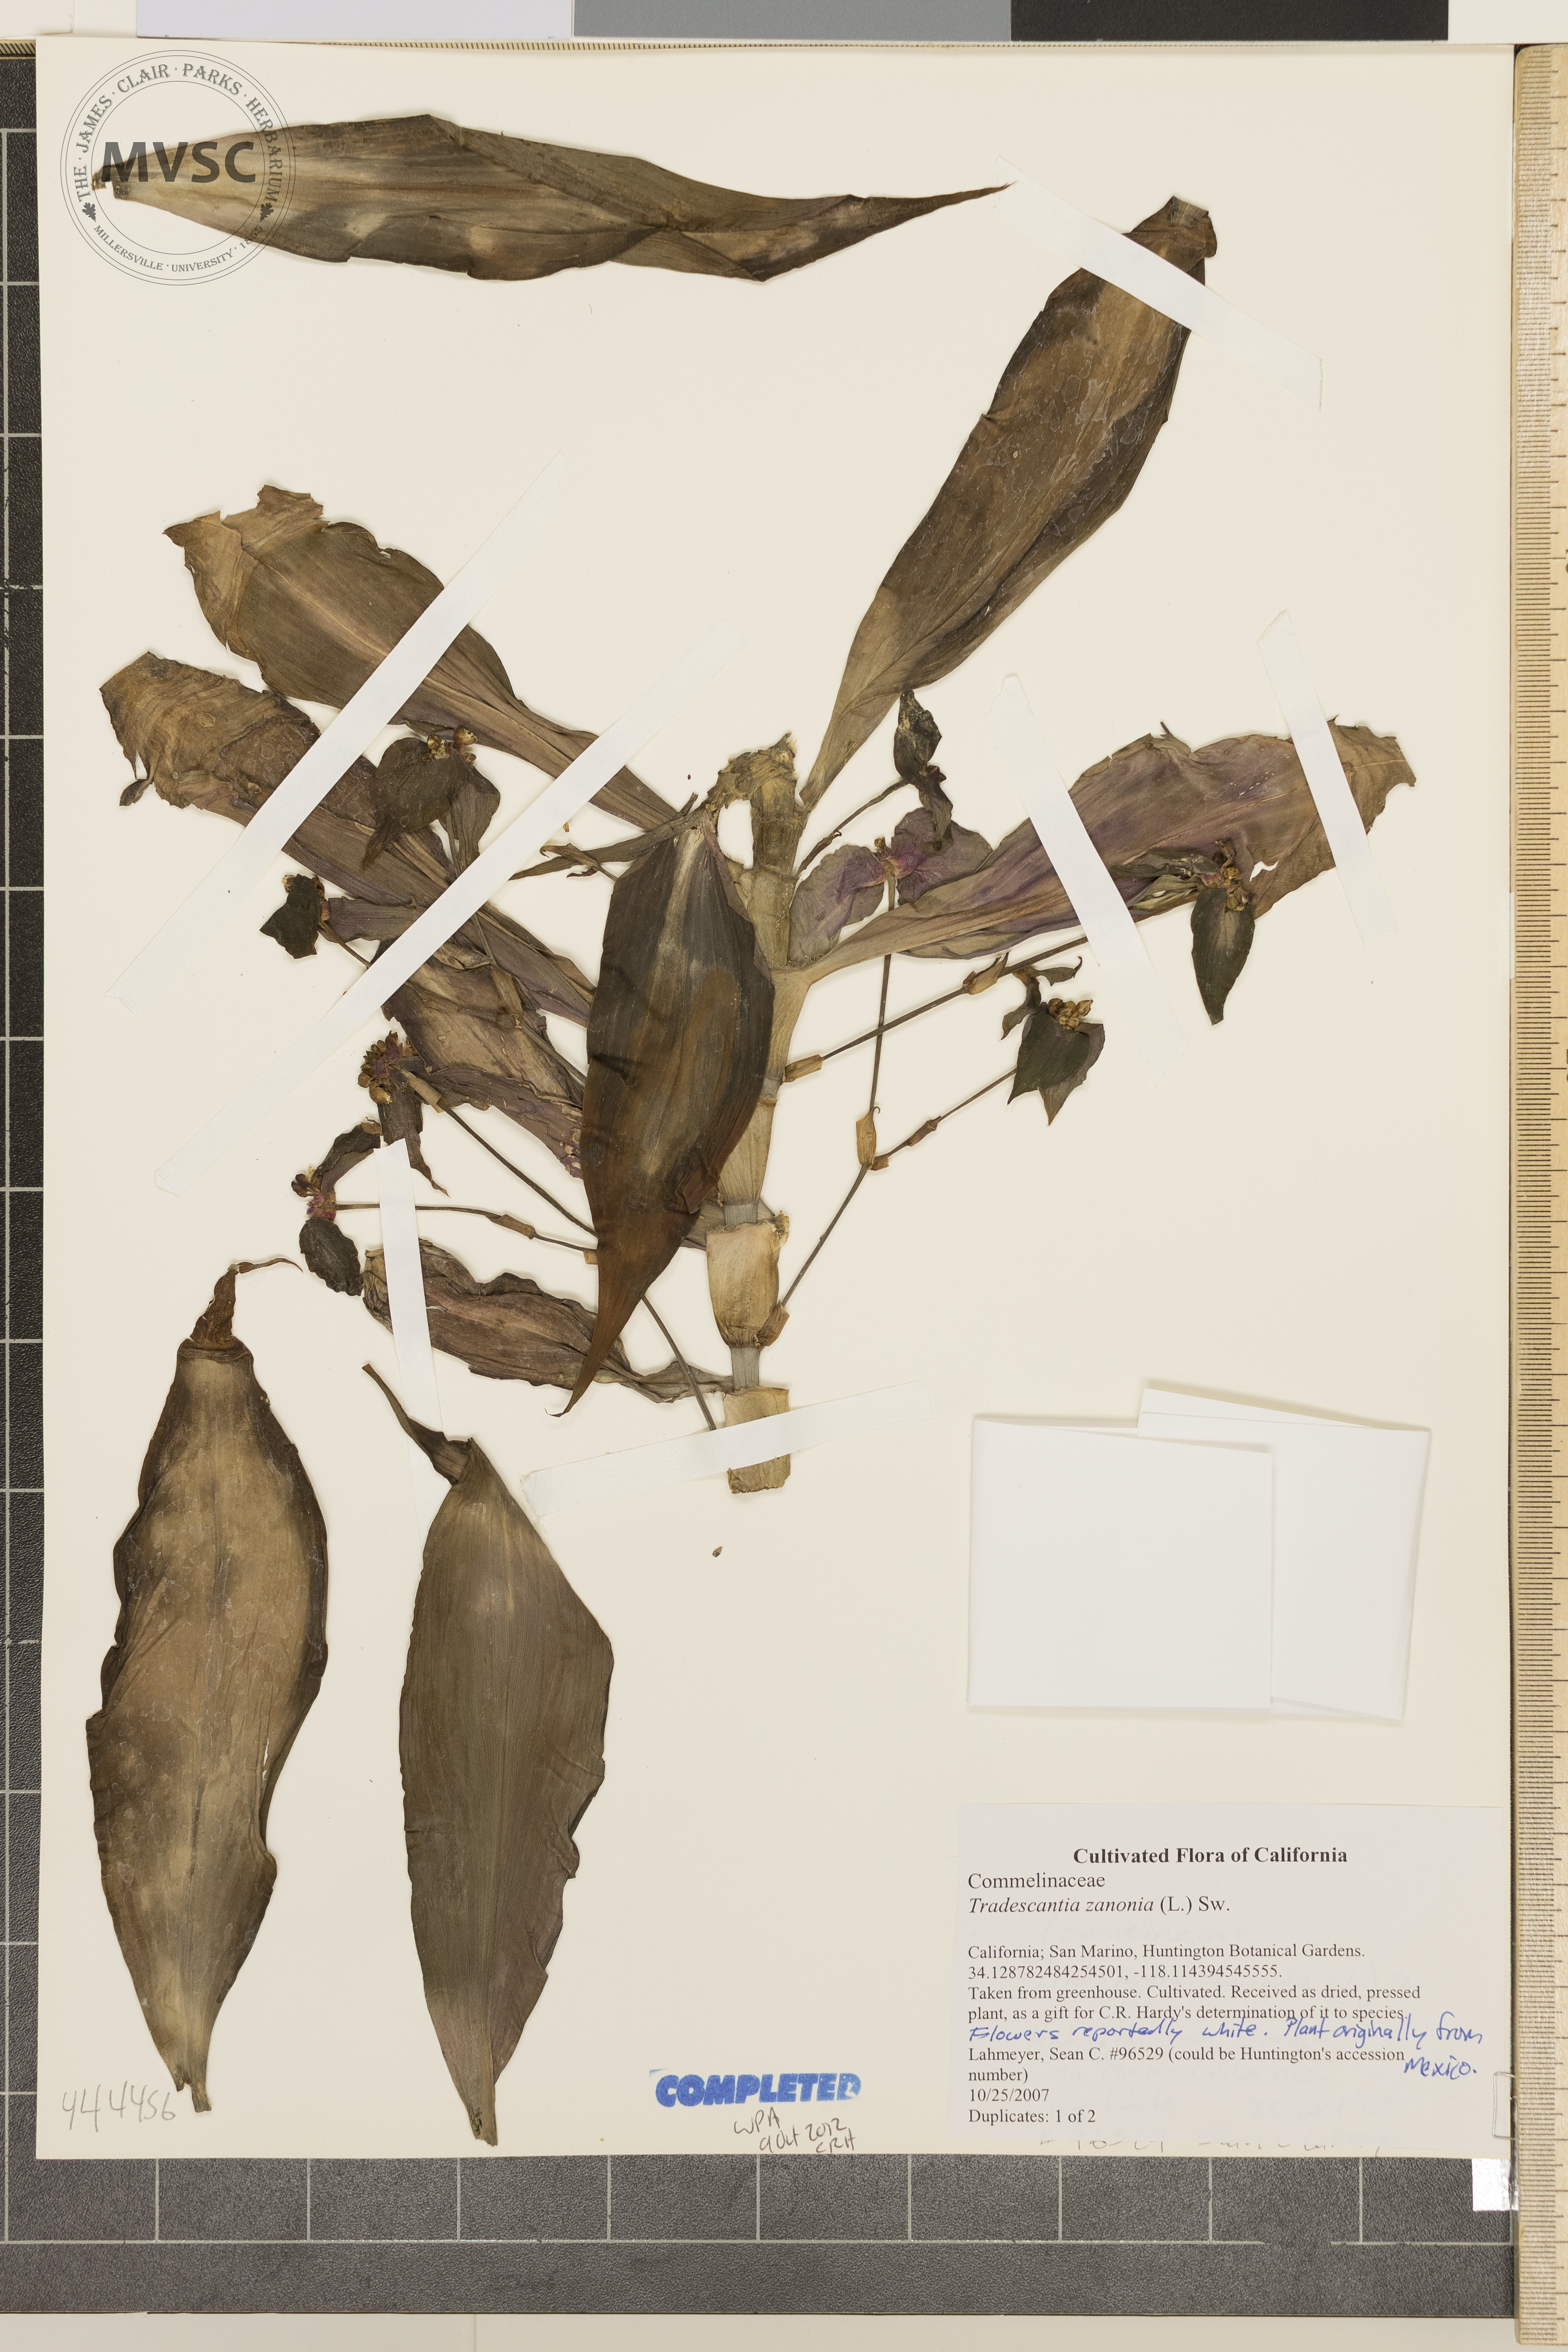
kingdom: Plantae
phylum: Tracheophyta
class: Liliopsida
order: Commelinales
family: Commelinaceae
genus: Tradescantia
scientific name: Tradescantia zanonia
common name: spiderwort
